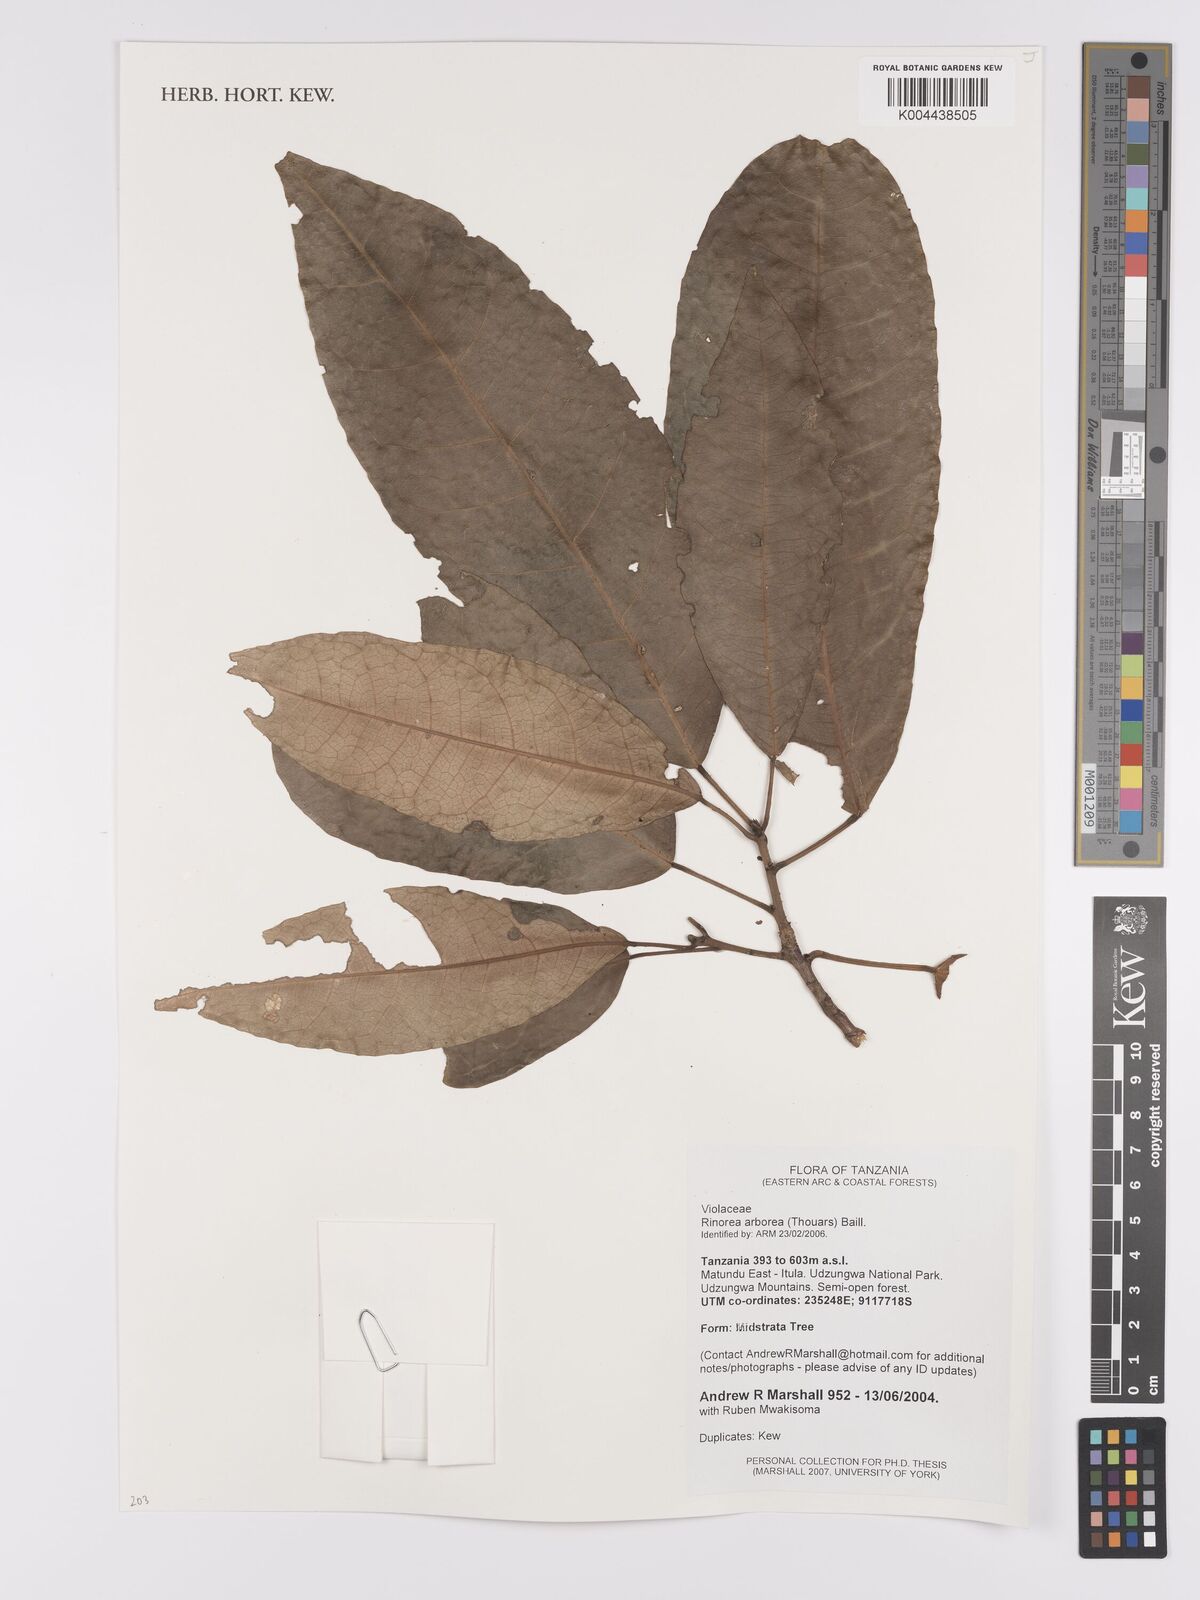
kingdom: Plantae
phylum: Tracheophyta
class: Magnoliopsida
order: Malpighiales
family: Violaceae
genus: Rinorea
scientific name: Rinorea arborea
